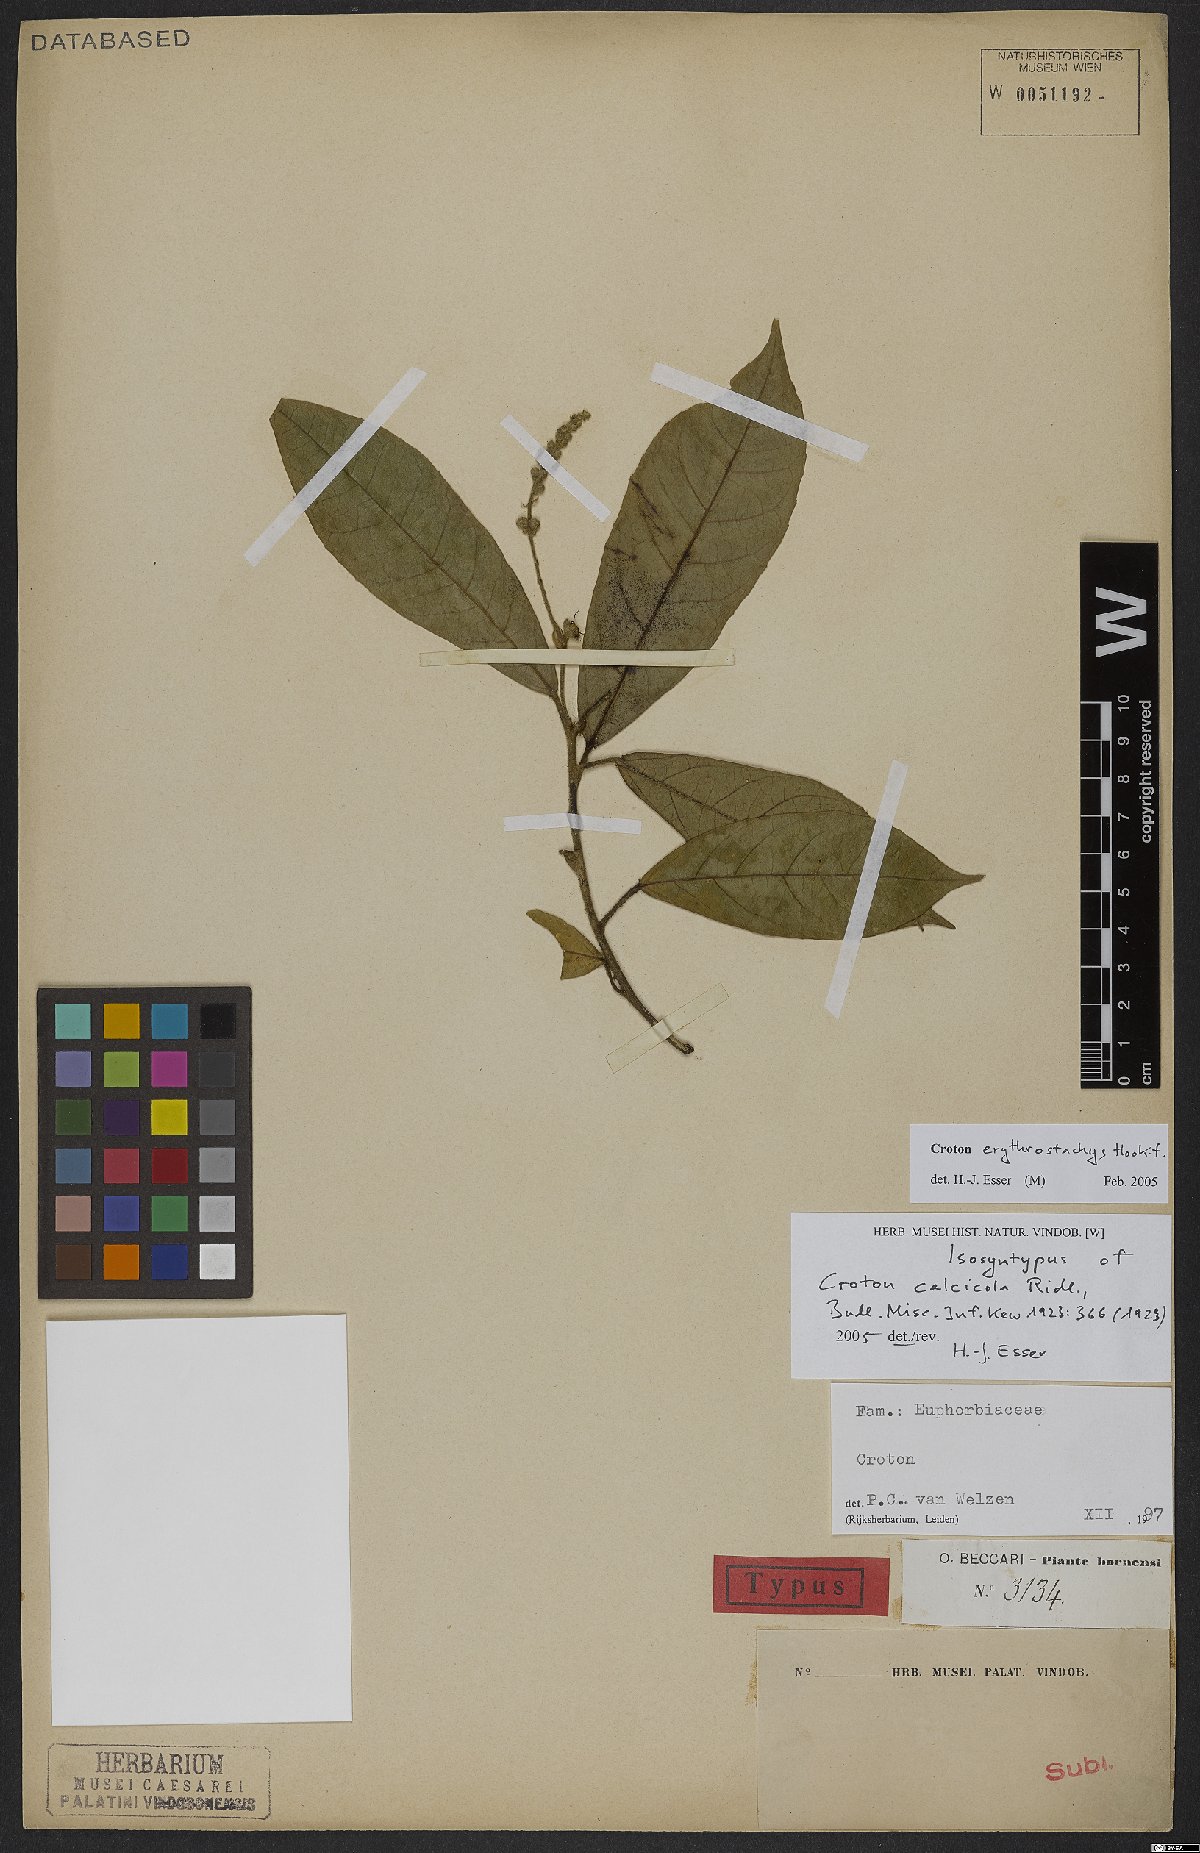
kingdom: Plantae
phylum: Tracheophyta
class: Magnoliopsida
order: Malpighiales
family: Euphorbiaceae
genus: Croton
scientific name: Croton erythrostachys
